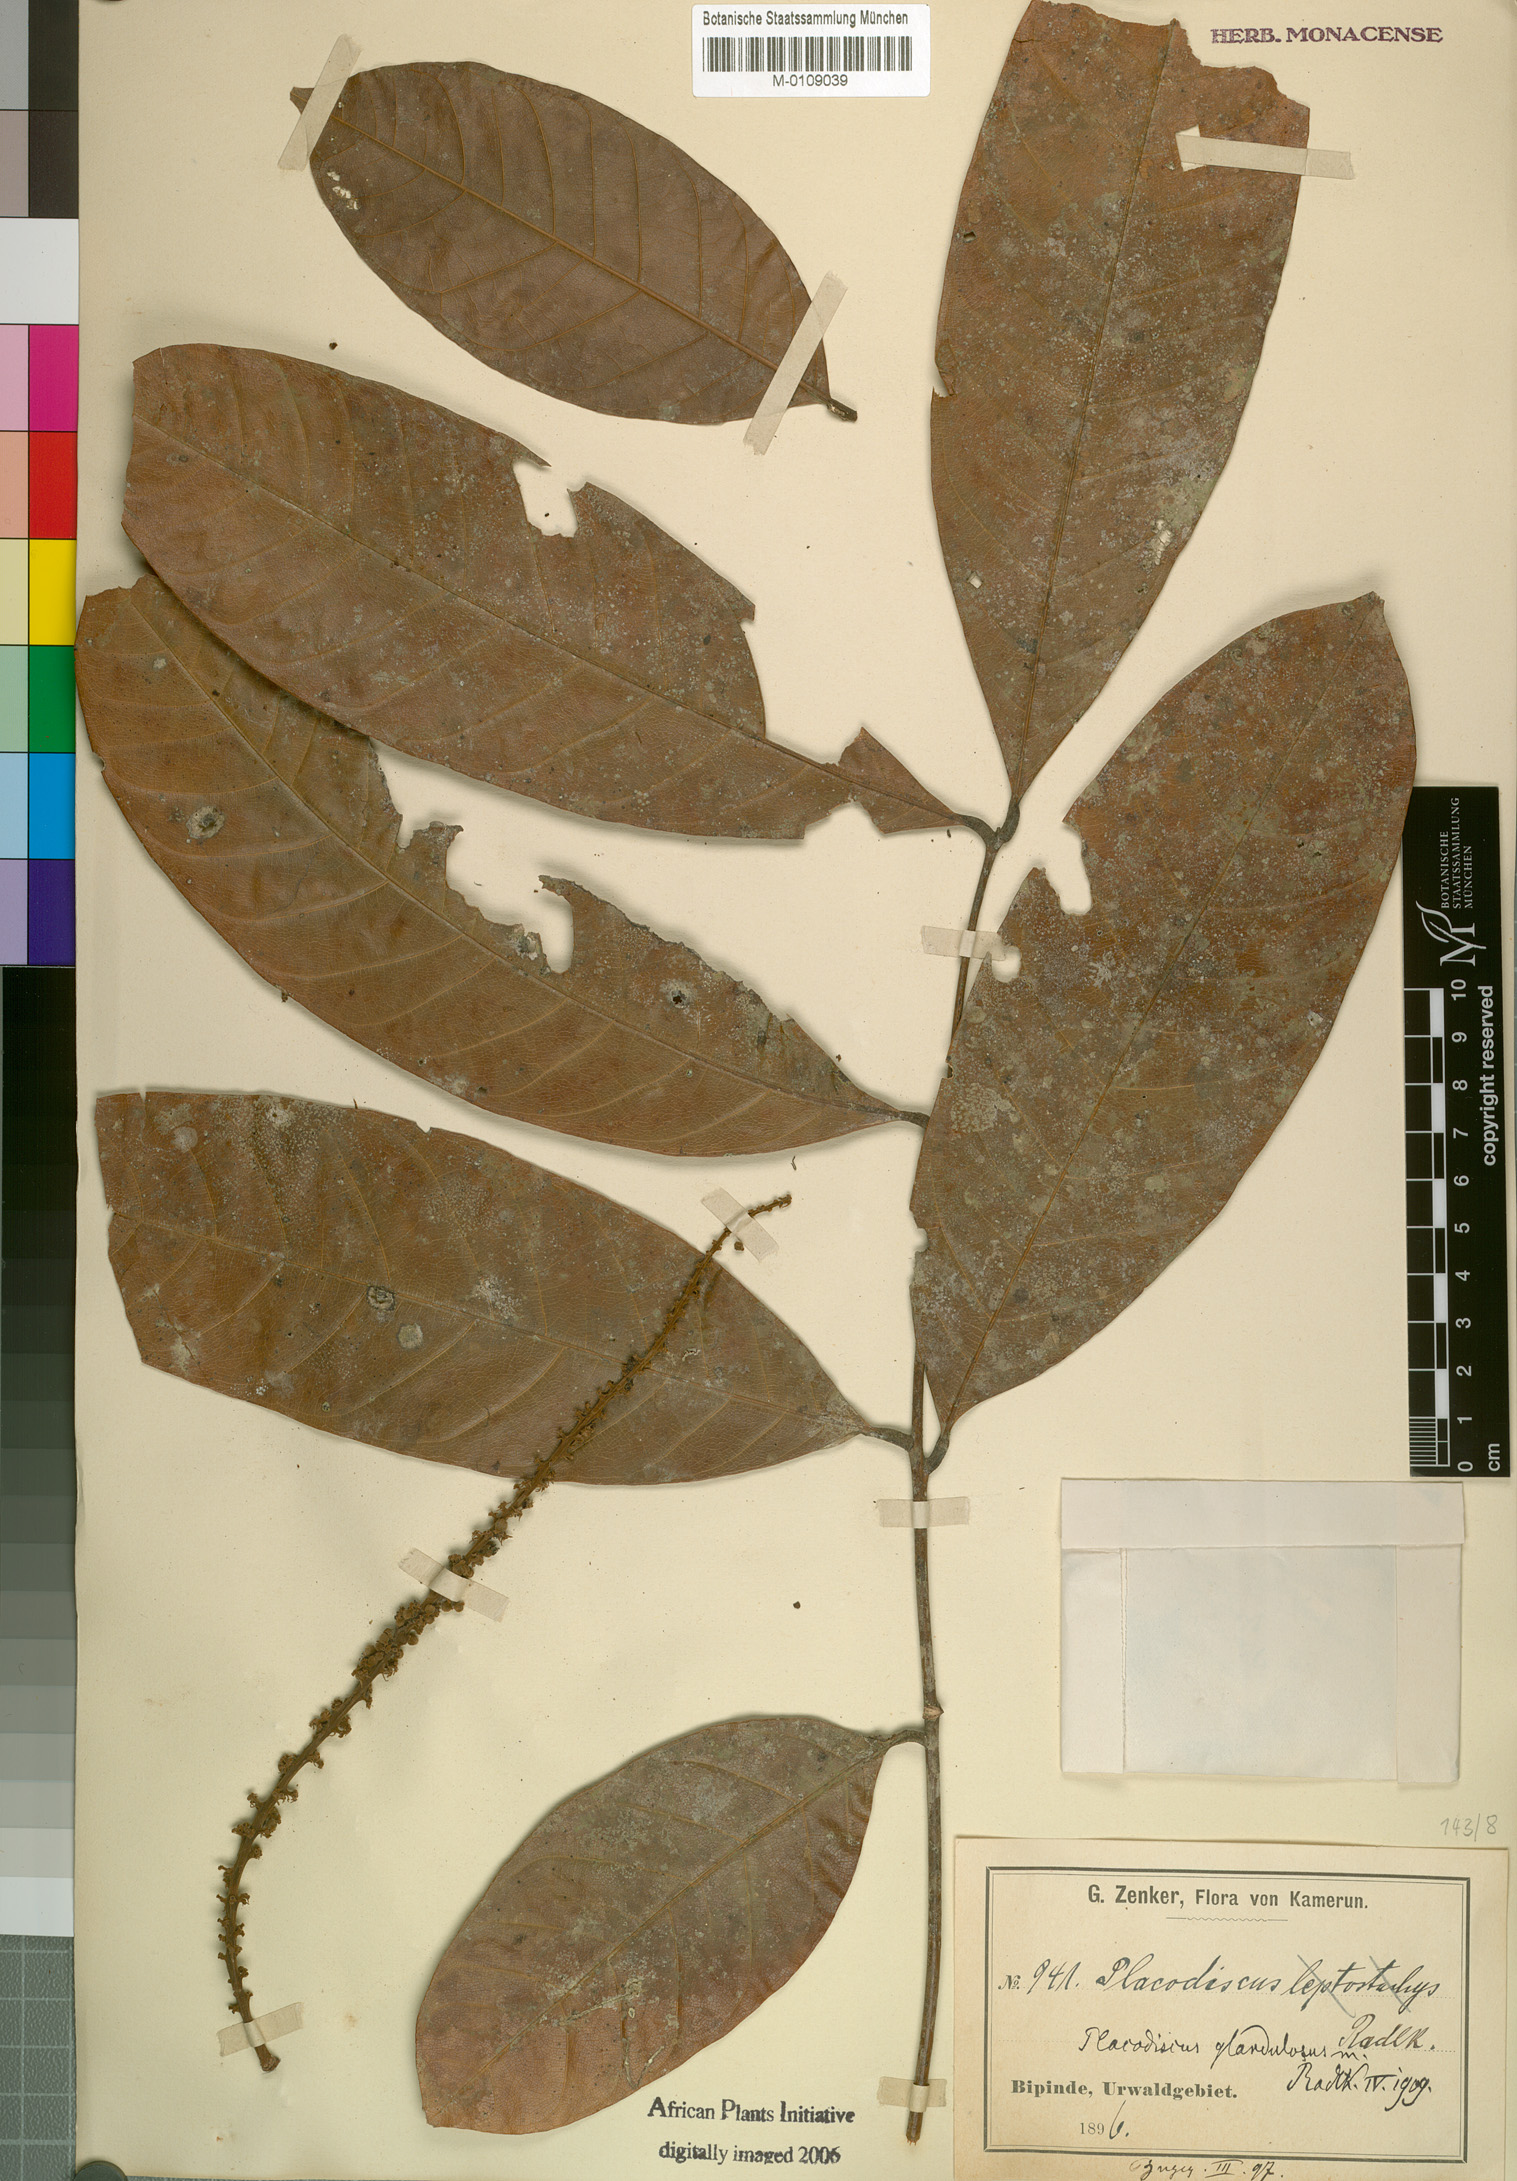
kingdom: Plantae
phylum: Tracheophyta
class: Magnoliopsida
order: Sapindales
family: Sapindaceae
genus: Placodiscus
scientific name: Placodiscus glandulosus
